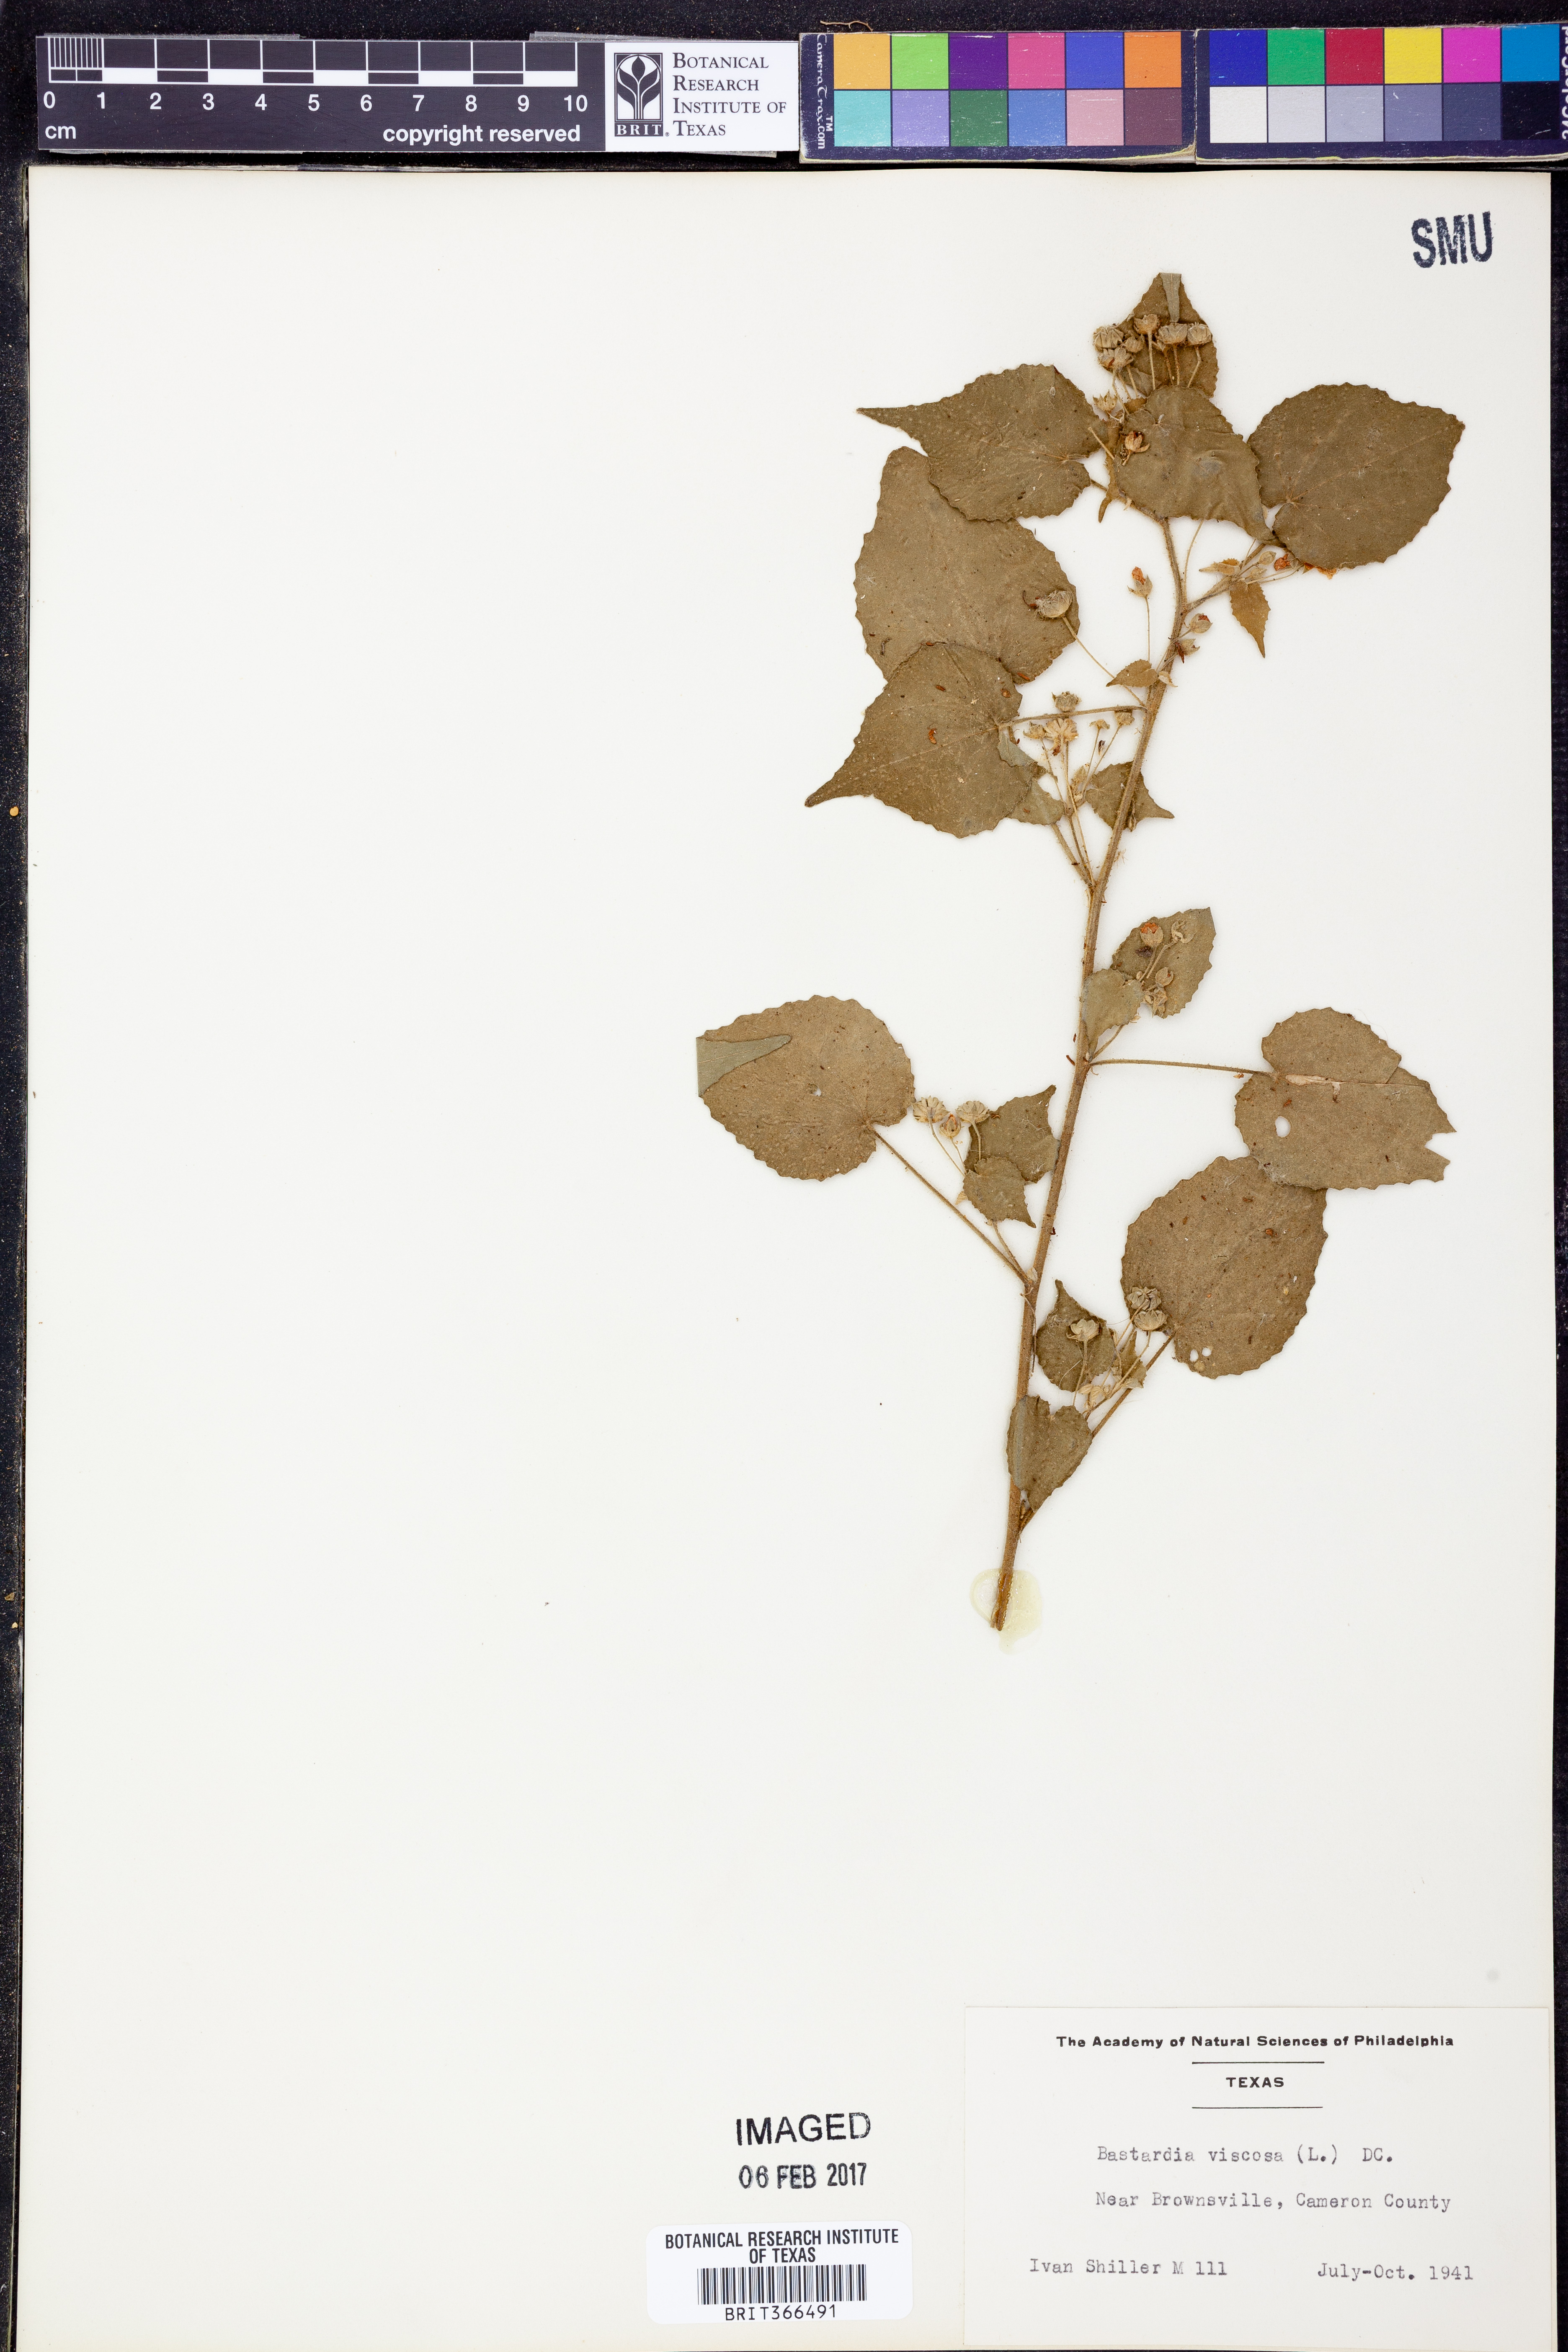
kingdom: Plantae
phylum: Tracheophyta
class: Magnoliopsida
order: Malvales
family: Malvaceae
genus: Abutilon
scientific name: Abutilon viscosum
